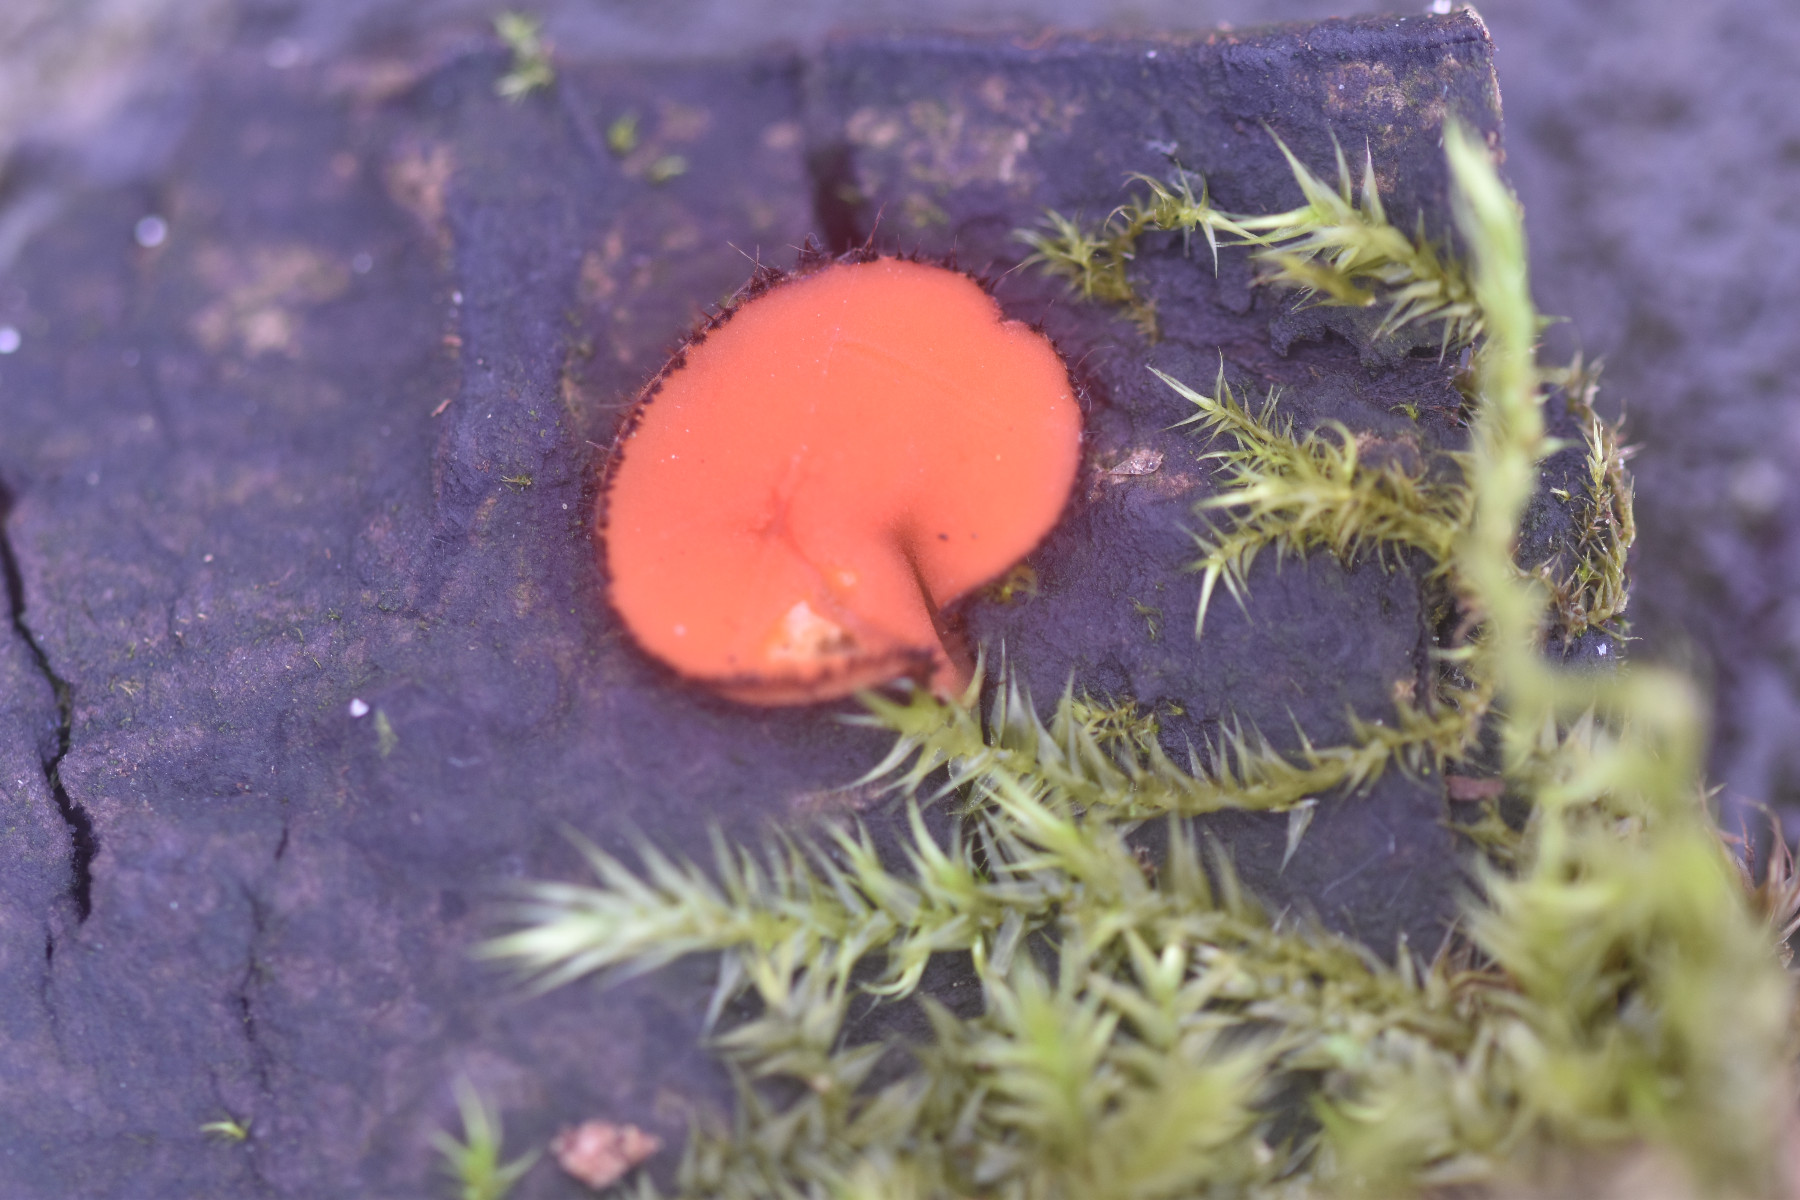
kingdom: Fungi
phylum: Ascomycota
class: Pezizomycetes
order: Pezizales
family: Pyronemataceae
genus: Scutellinia
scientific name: Scutellinia scutellata
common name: frynset skjoldbæger
